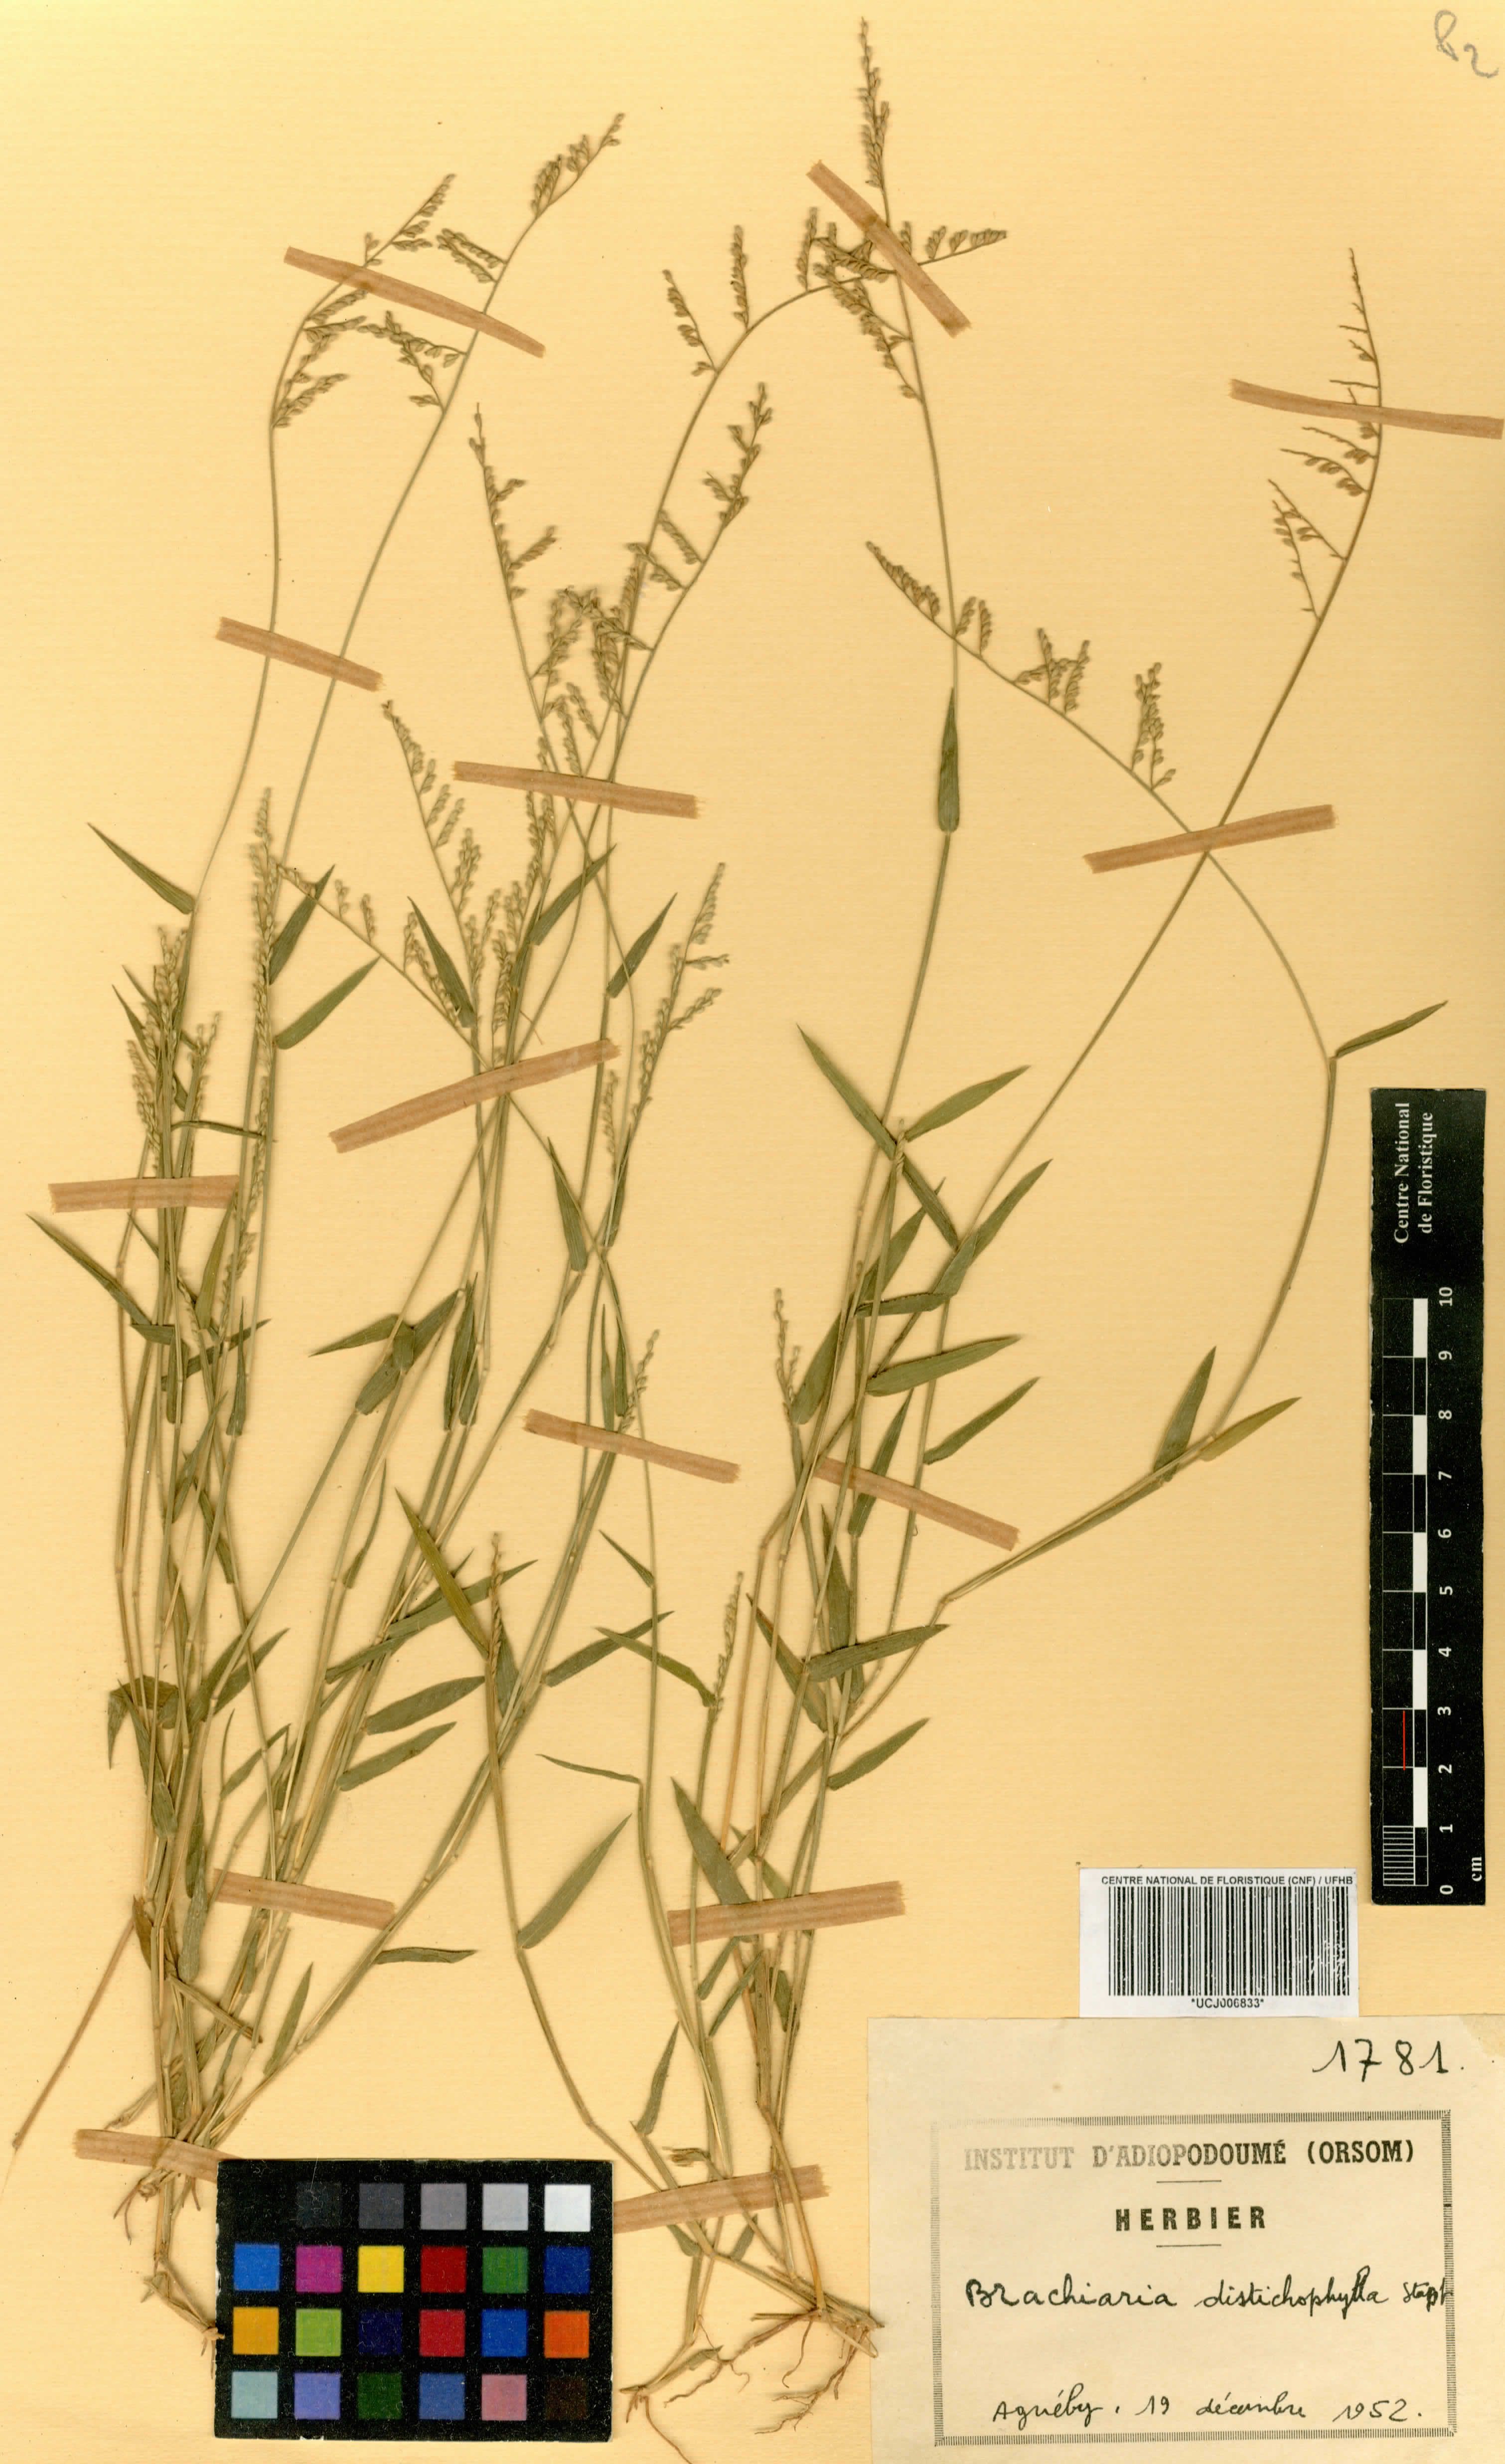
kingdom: Plantae
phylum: Tracheophyta
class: Liliopsida
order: Poales
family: Poaceae
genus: Urochloa
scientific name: Urochloa villosa
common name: Hairy signalgrass
